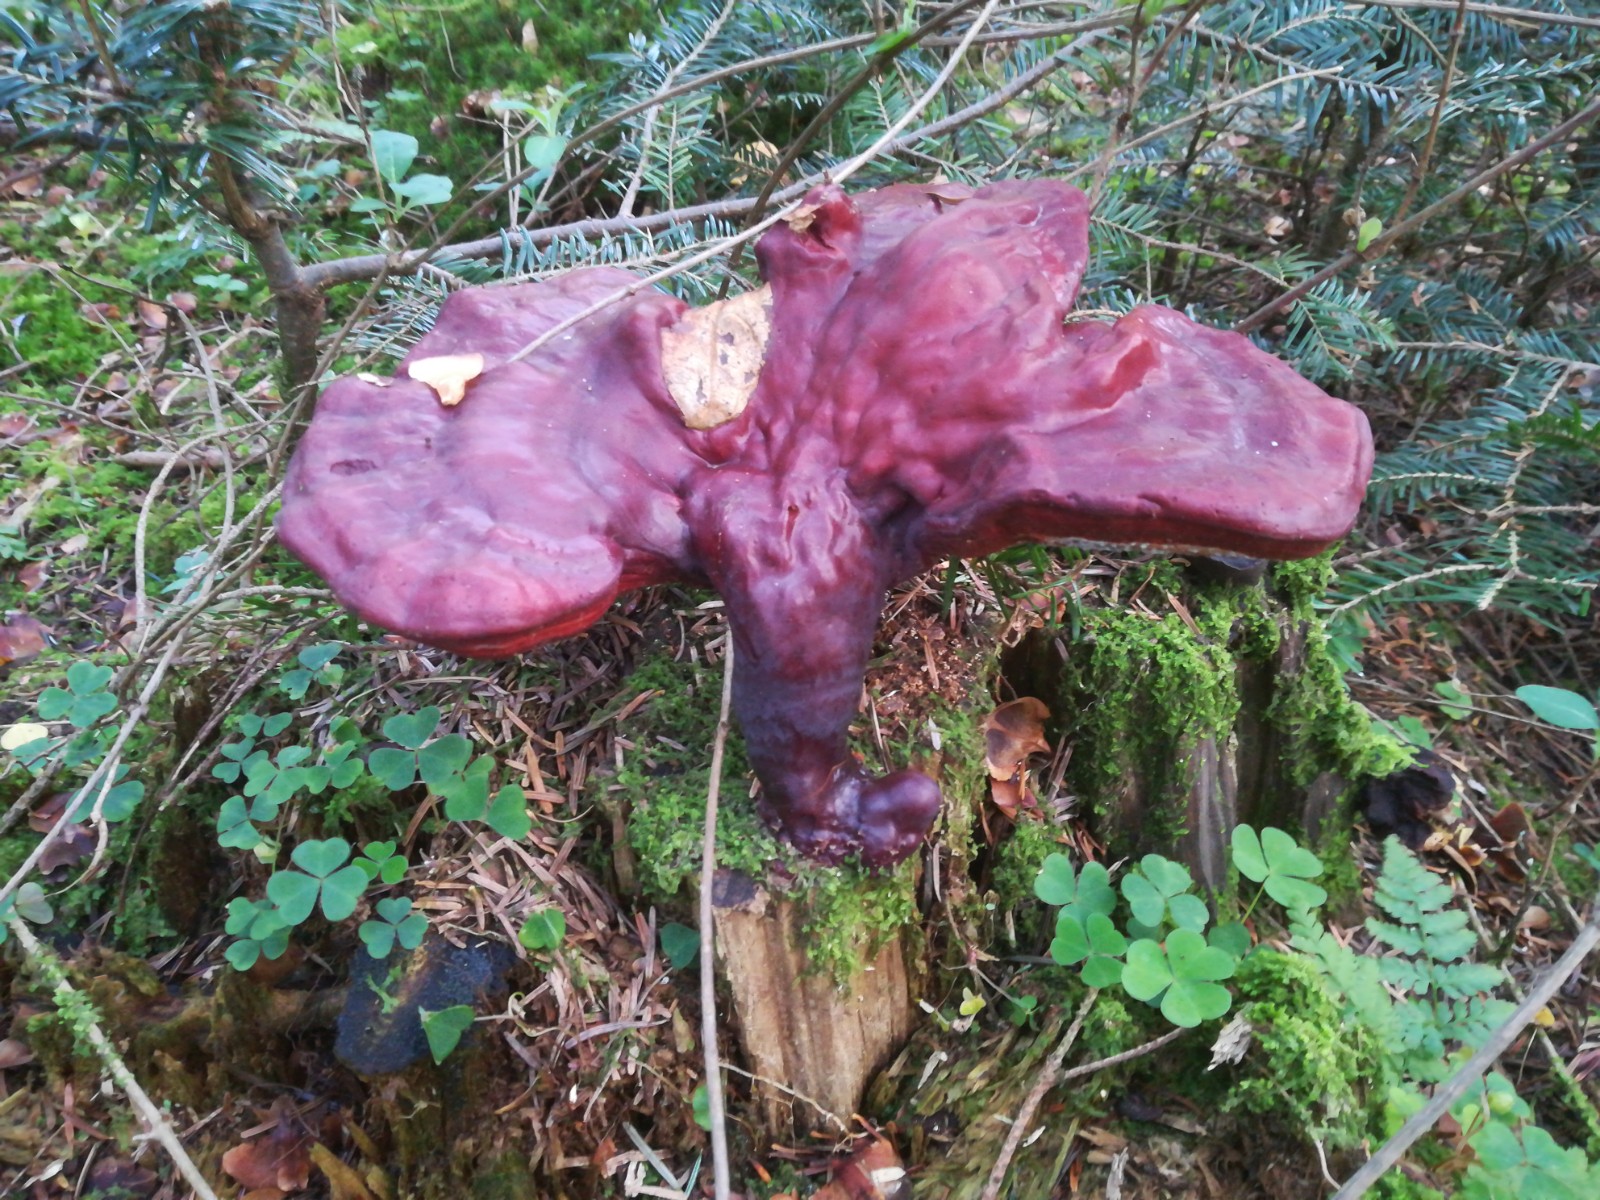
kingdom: Fungi
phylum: Basidiomycota
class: Agaricomycetes
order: Polyporales
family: Polyporaceae
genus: Ganoderma
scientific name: Ganoderma lucidum
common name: skinnende lakporesvamp
